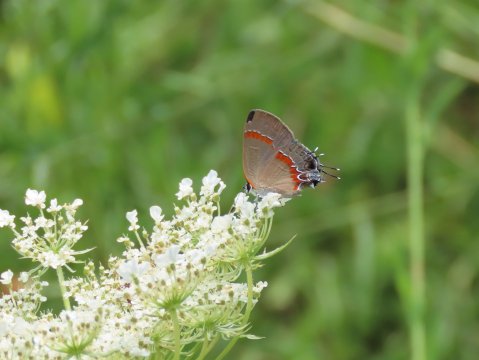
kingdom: Animalia
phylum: Arthropoda
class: Insecta
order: Lepidoptera
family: Lycaenidae
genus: Calycopis
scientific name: Calycopis cecrops
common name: Red-banded Hairstreak
